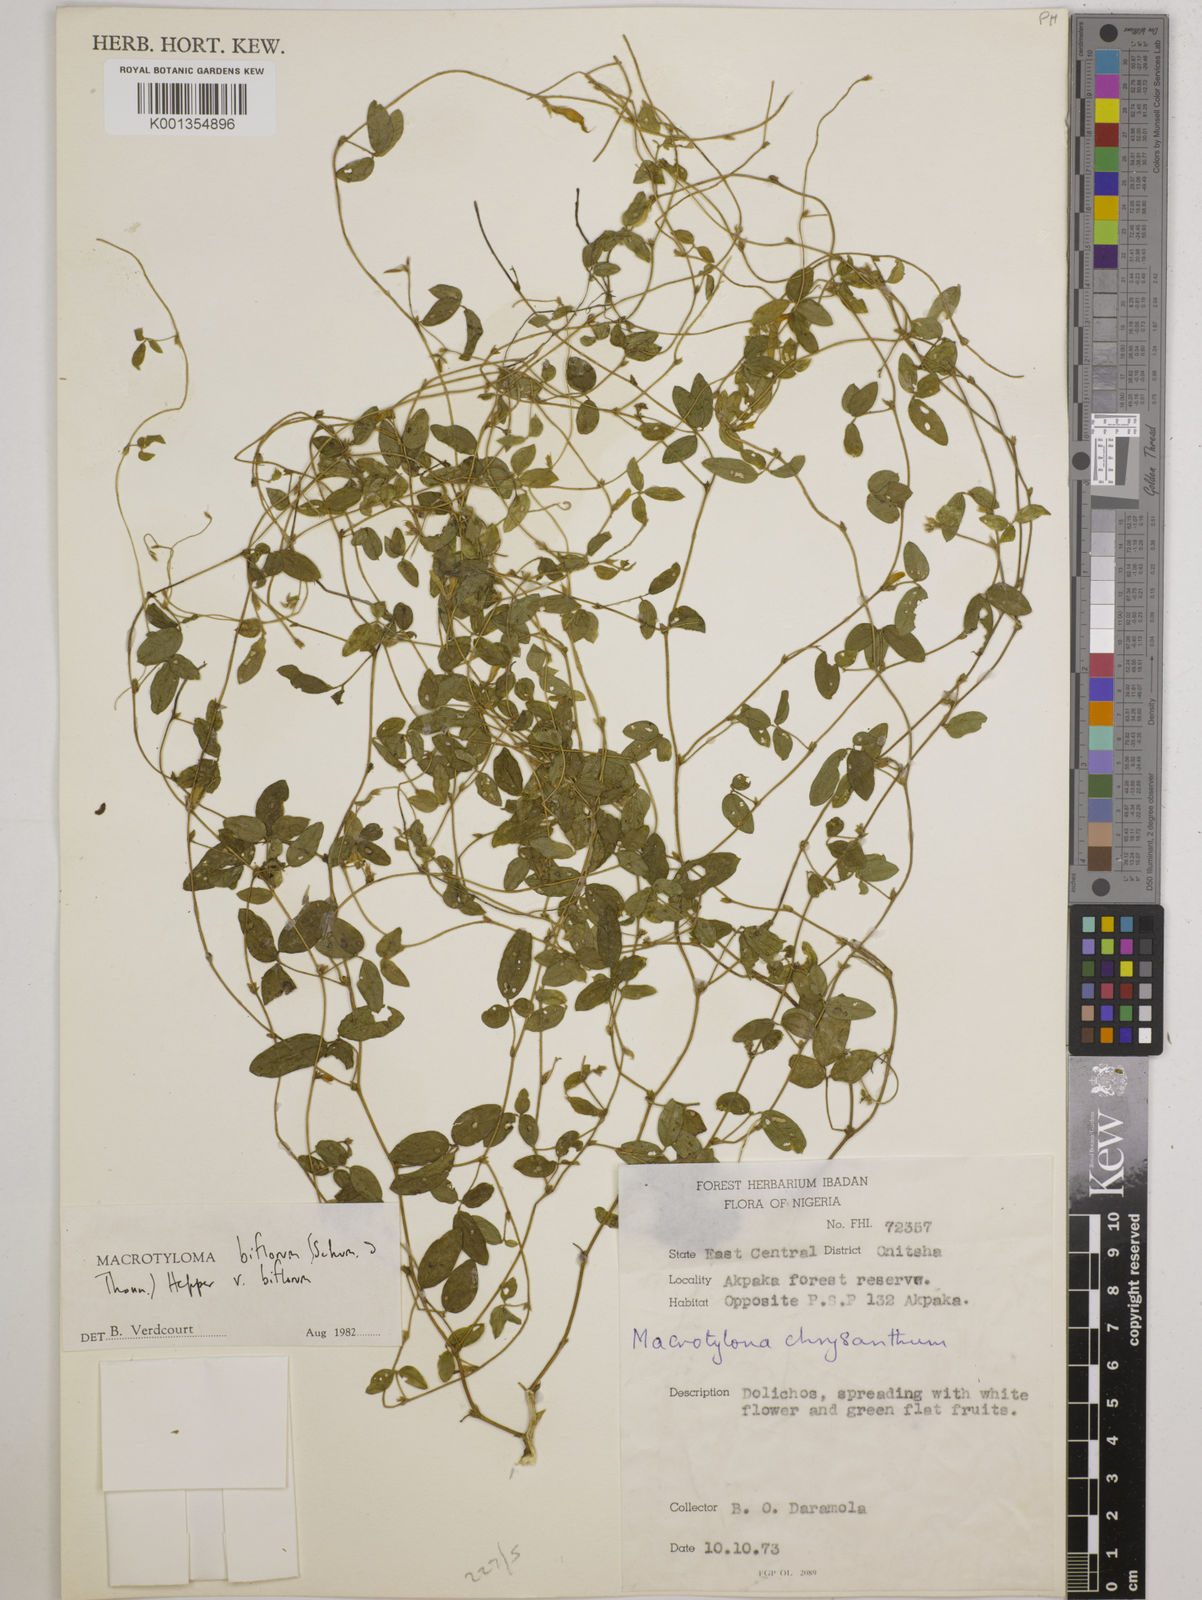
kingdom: Plantae
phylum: Tracheophyta
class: Magnoliopsida
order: Fabales
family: Fabaceae
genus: Macrotyloma
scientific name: Macrotyloma biflorum
